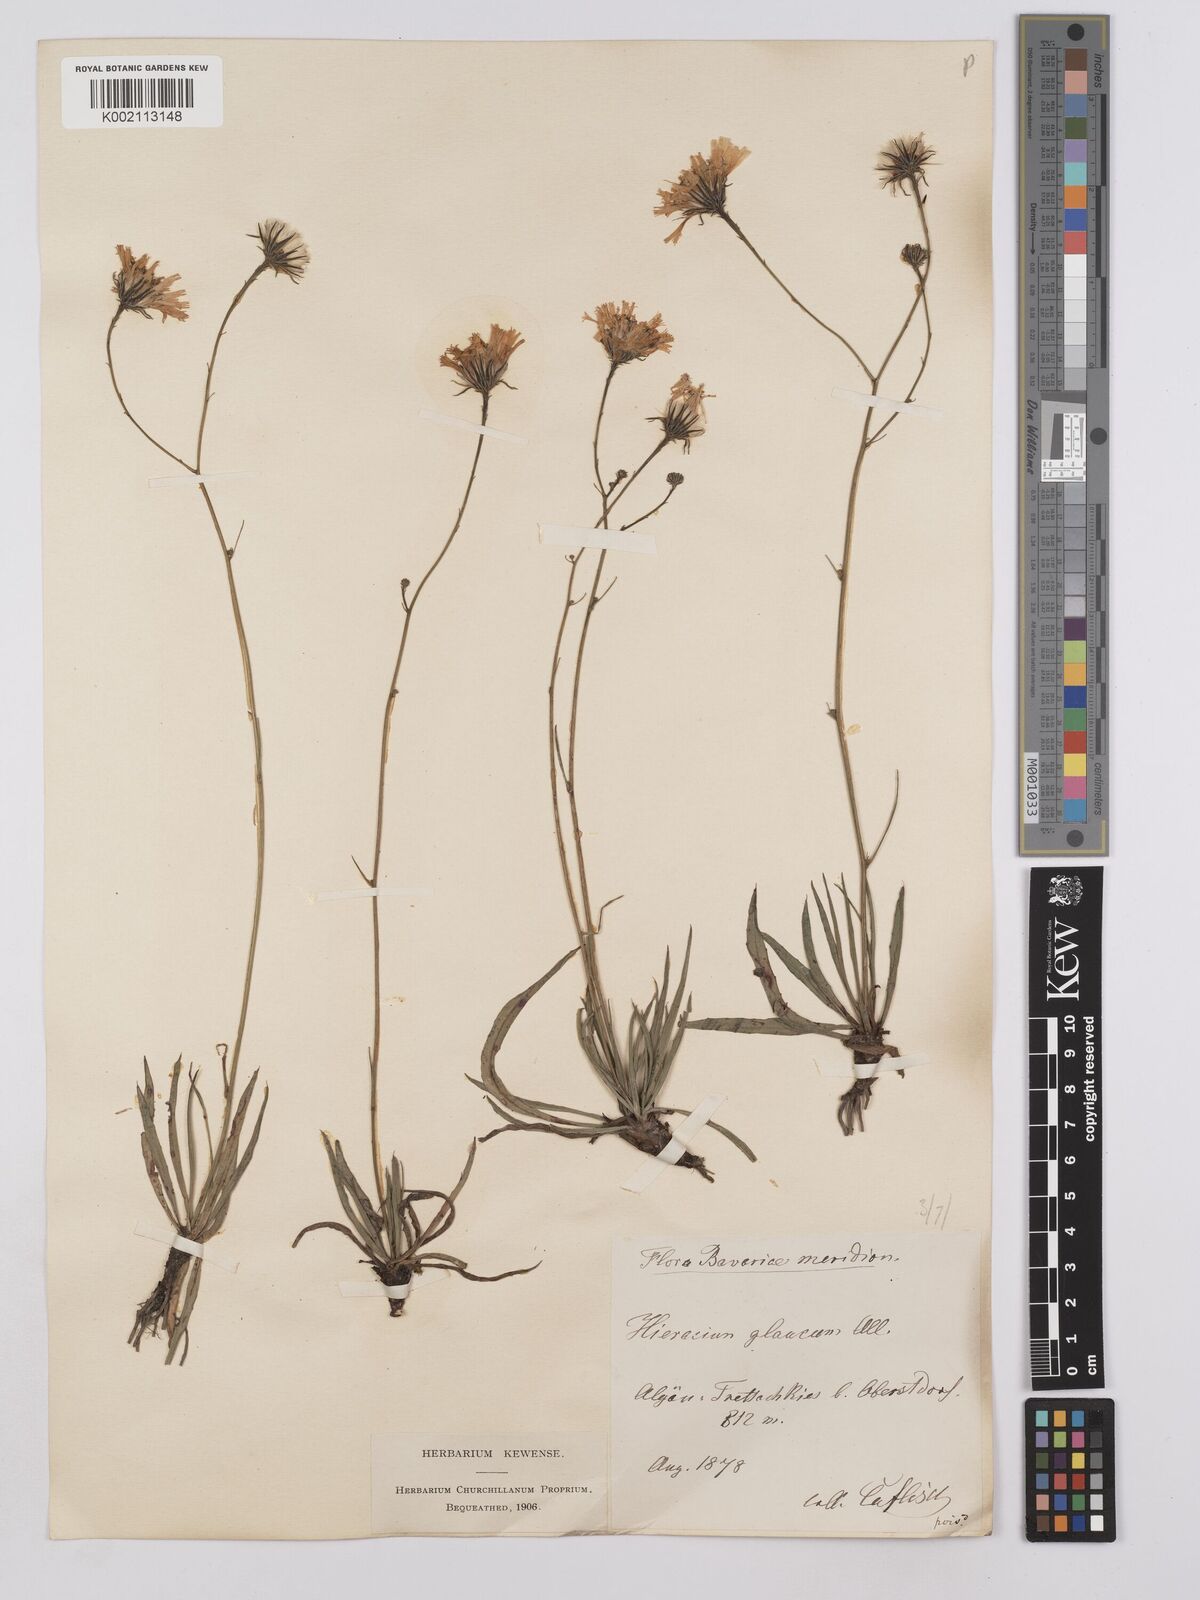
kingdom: Plantae
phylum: Tracheophyta
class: Magnoliopsida
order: Asterales
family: Asteraceae
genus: Hieracium
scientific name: Hieracium glaucum
